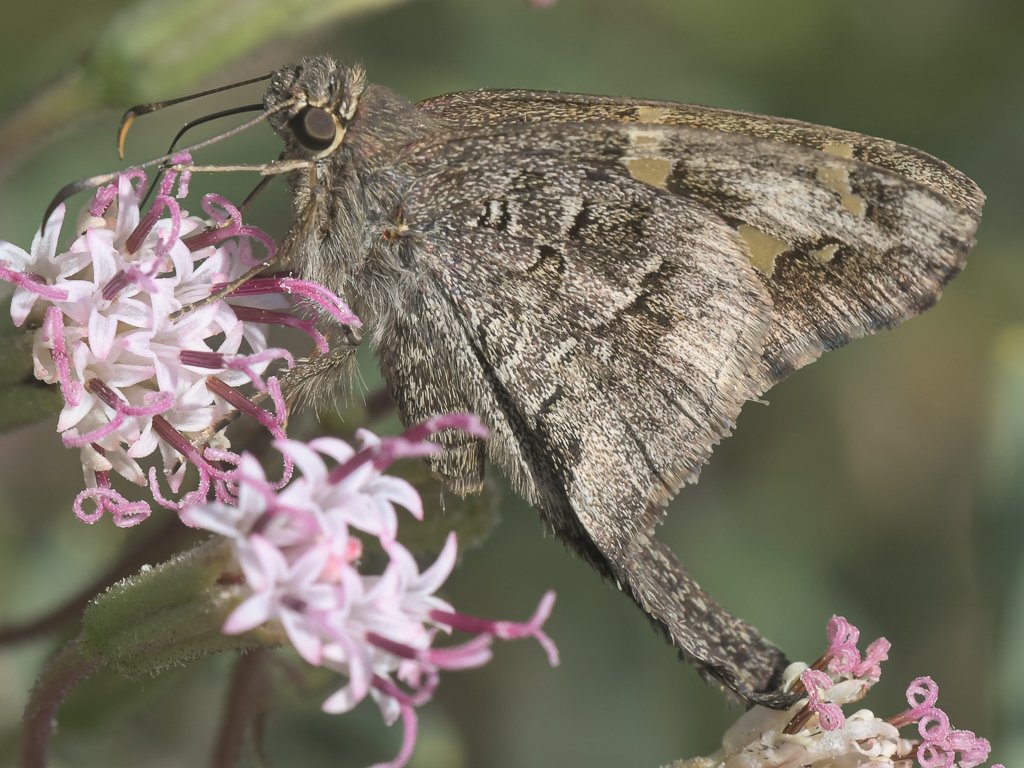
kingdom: Animalia
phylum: Arthropoda
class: Insecta
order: Lepidoptera
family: Hesperiidae
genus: Urbanus
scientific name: Urbanus dorantes
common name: Dorantes Longtail
